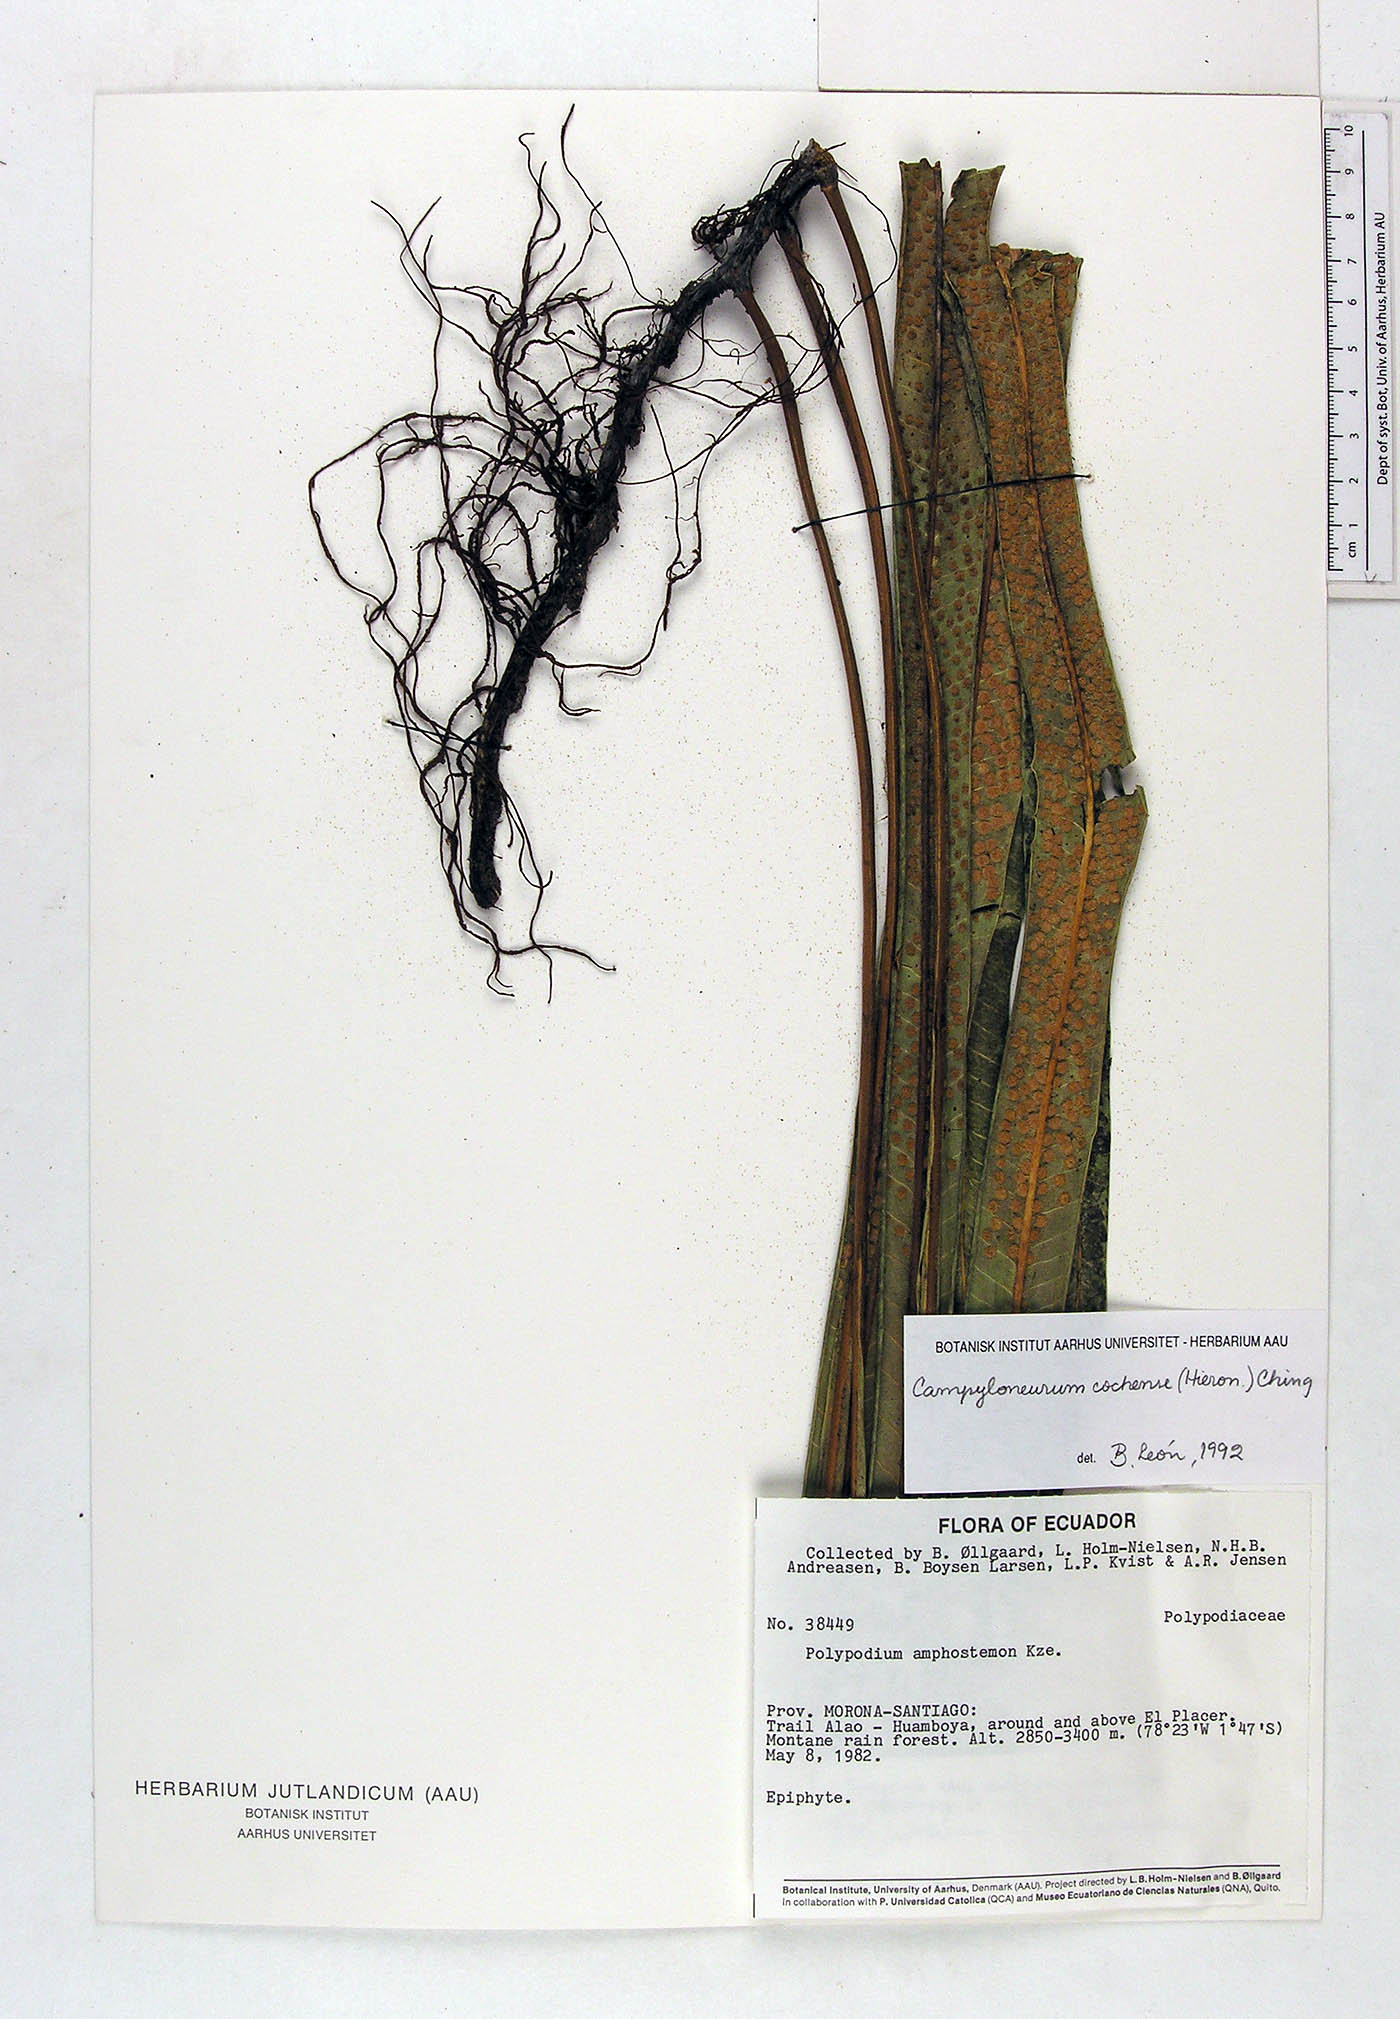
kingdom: Plantae
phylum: Tracheophyta
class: Polypodiopsida
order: Polypodiales
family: Polypodiaceae
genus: Campyloneurum
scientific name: Campyloneurum cochense
